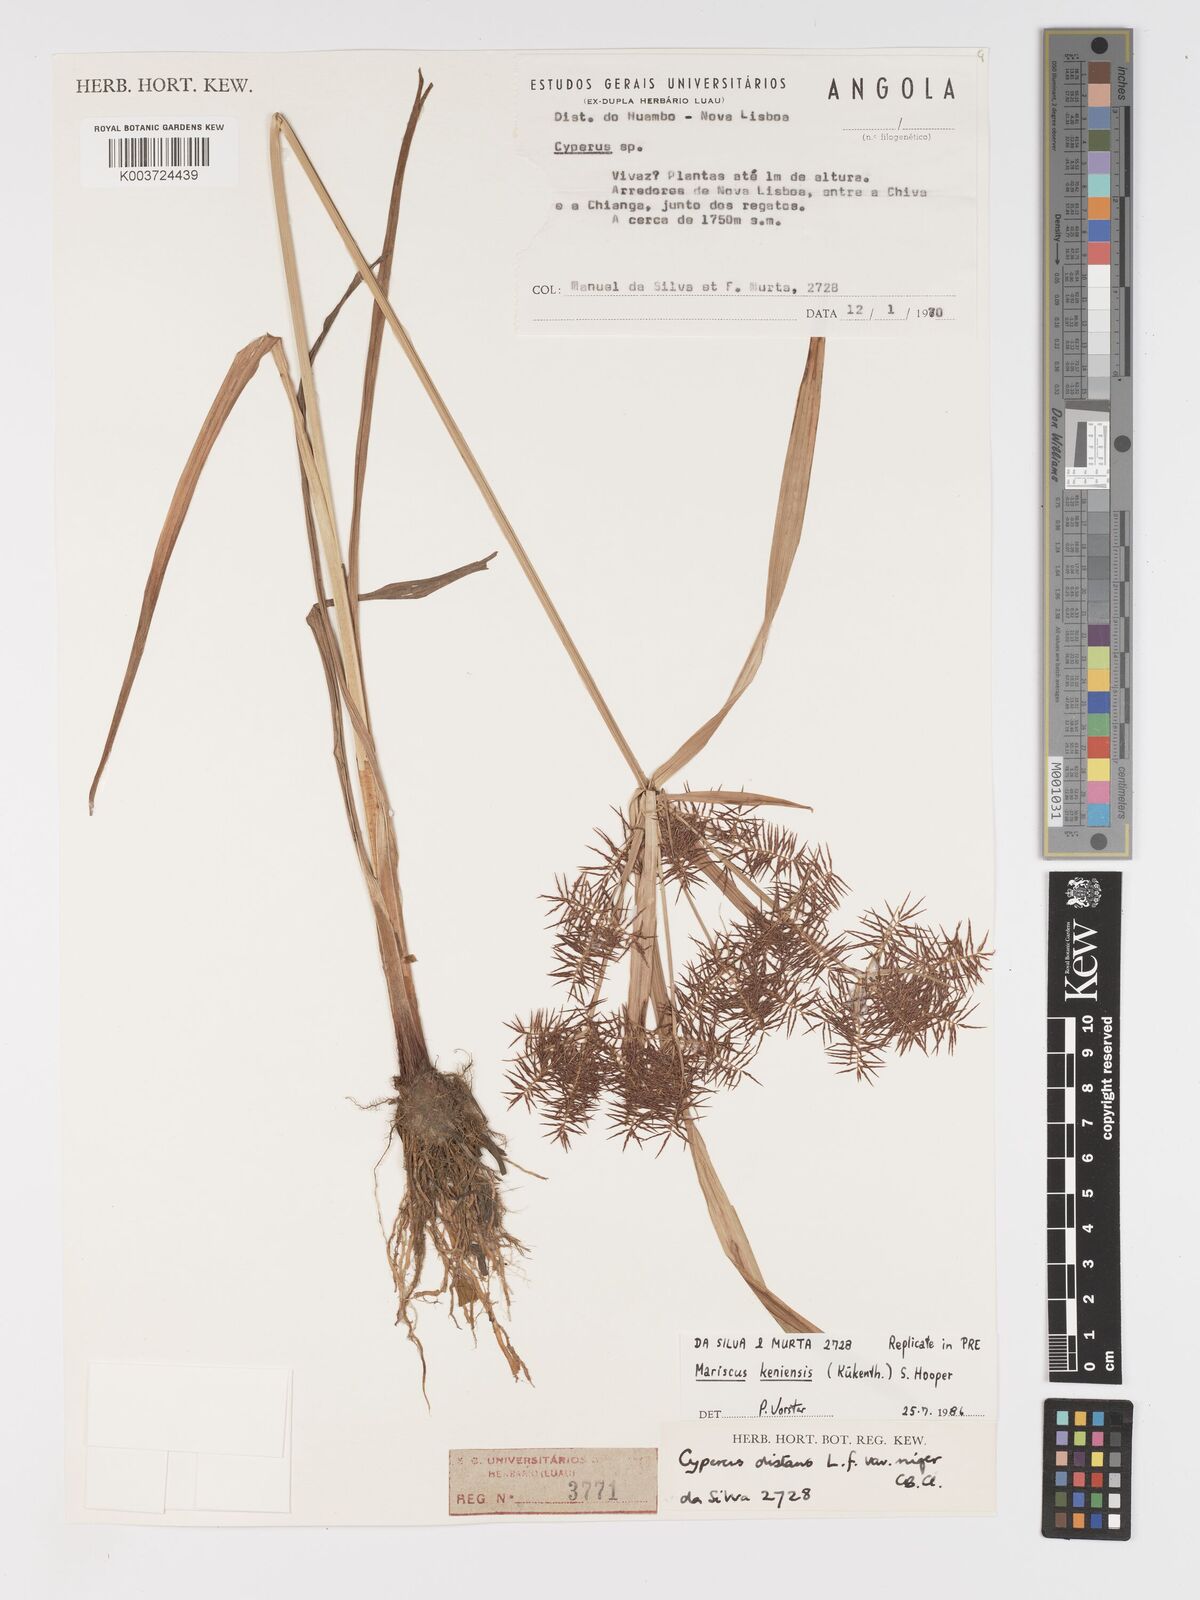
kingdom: Plantae
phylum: Tracheophyta
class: Liliopsida
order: Poales
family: Cyperaceae
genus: Cyperus
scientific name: Cyperus
